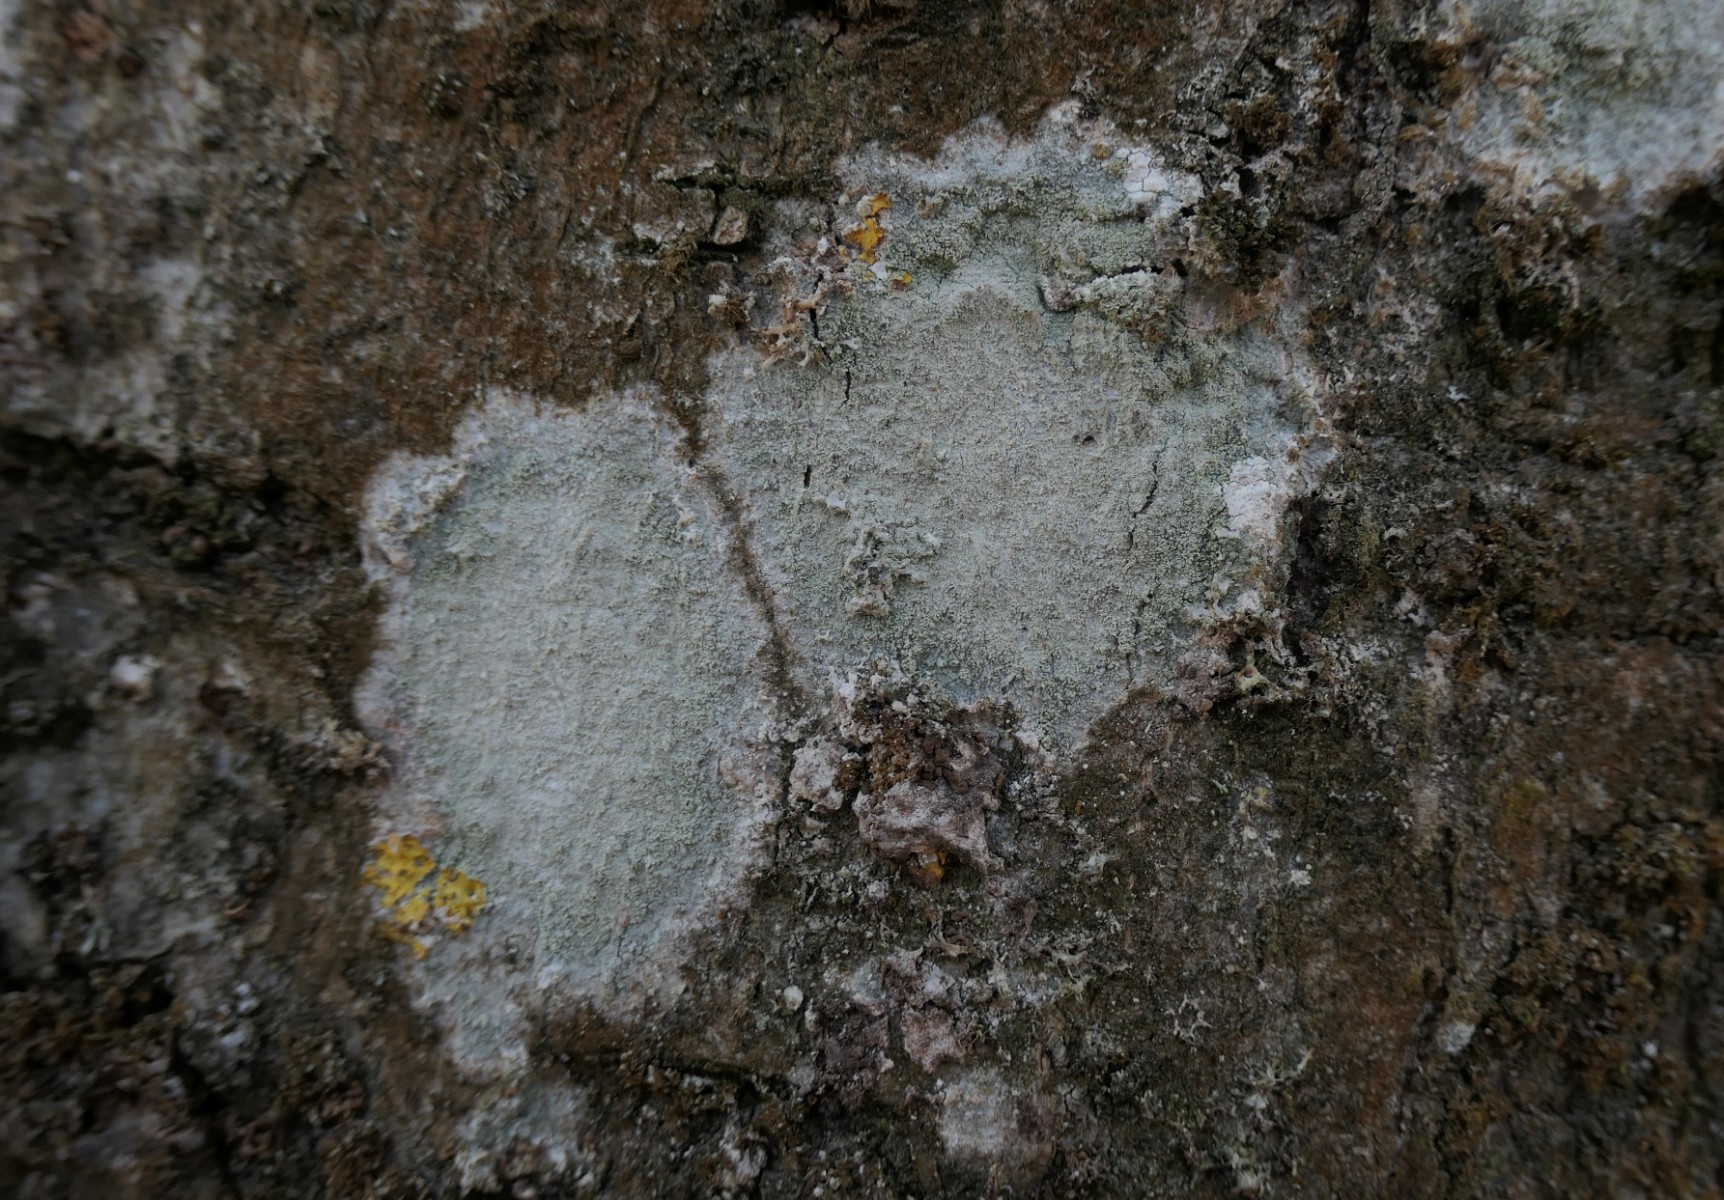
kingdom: Fungi
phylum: Ascomycota
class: Lecanoromycetes
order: Ostropales
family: Phlyctidaceae
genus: Phlyctis
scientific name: Phlyctis argena
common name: almindelig sølvlav
